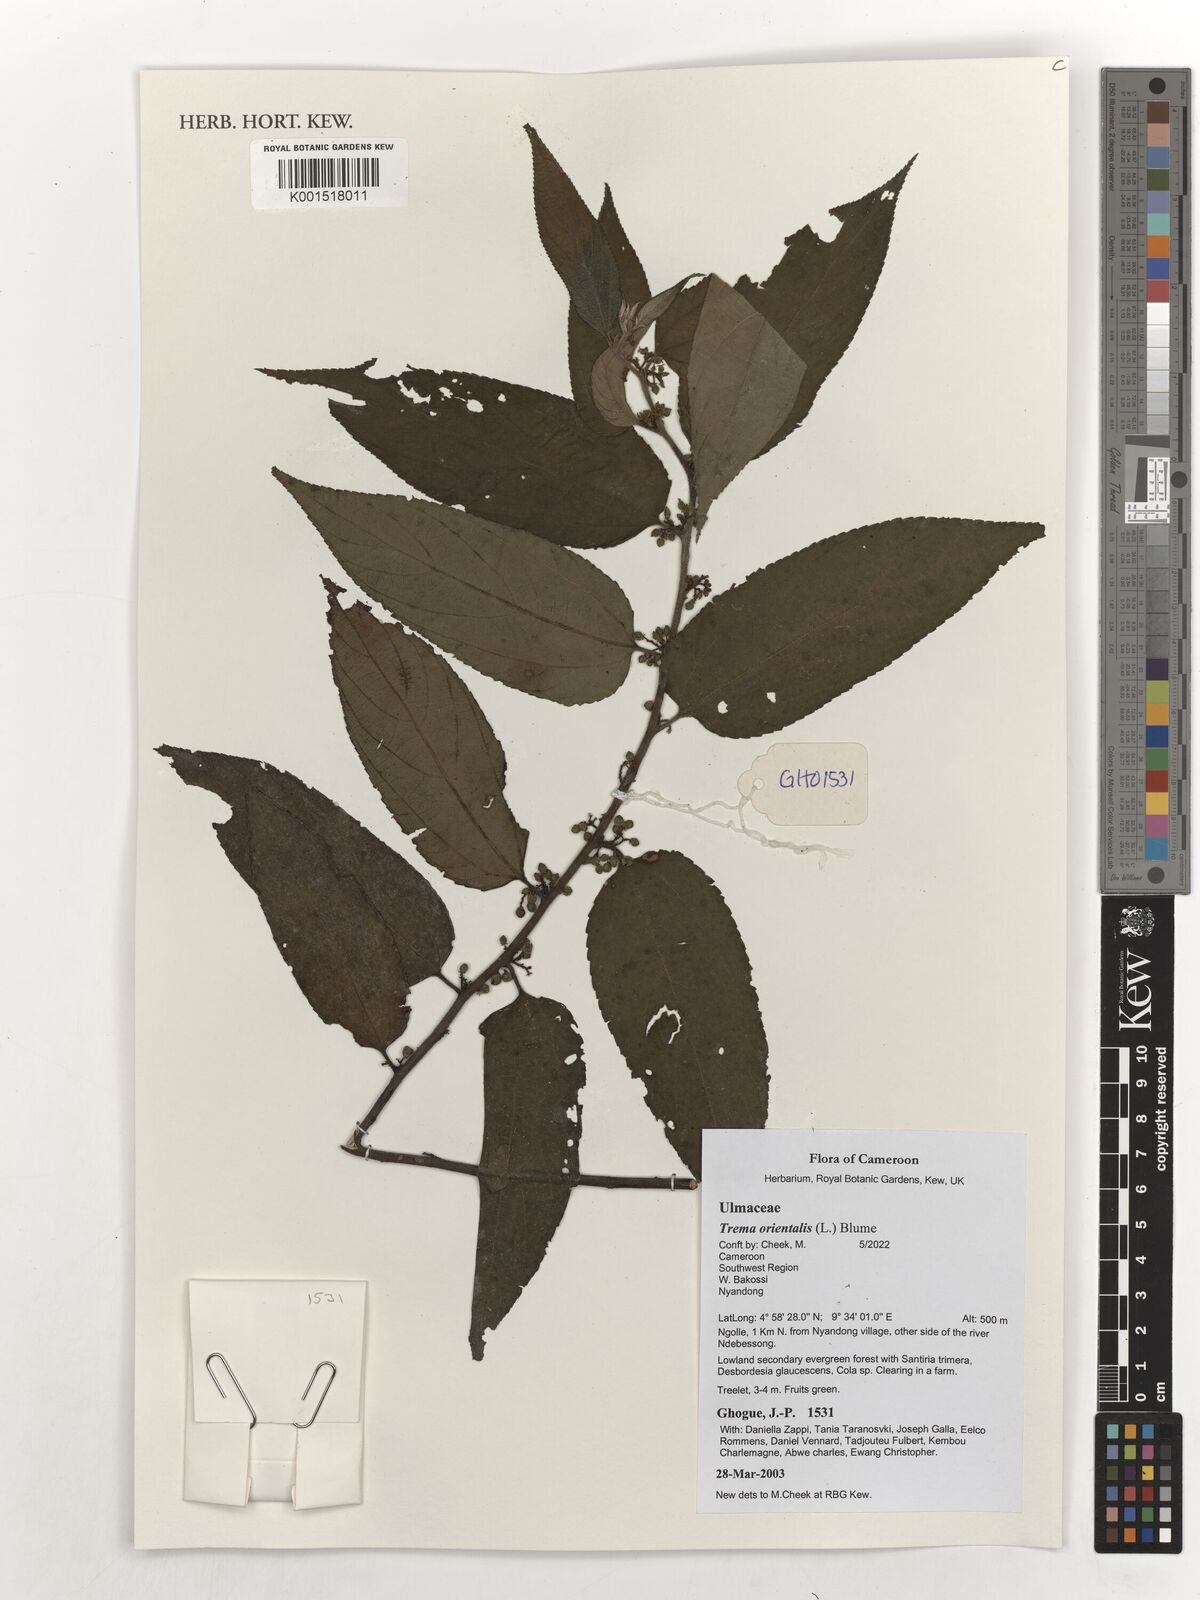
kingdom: Plantae
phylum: Tracheophyta
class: Magnoliopsida
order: Rosales
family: Cannabaceae
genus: Trema
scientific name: Trema orientale
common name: Indian charcoal tree
